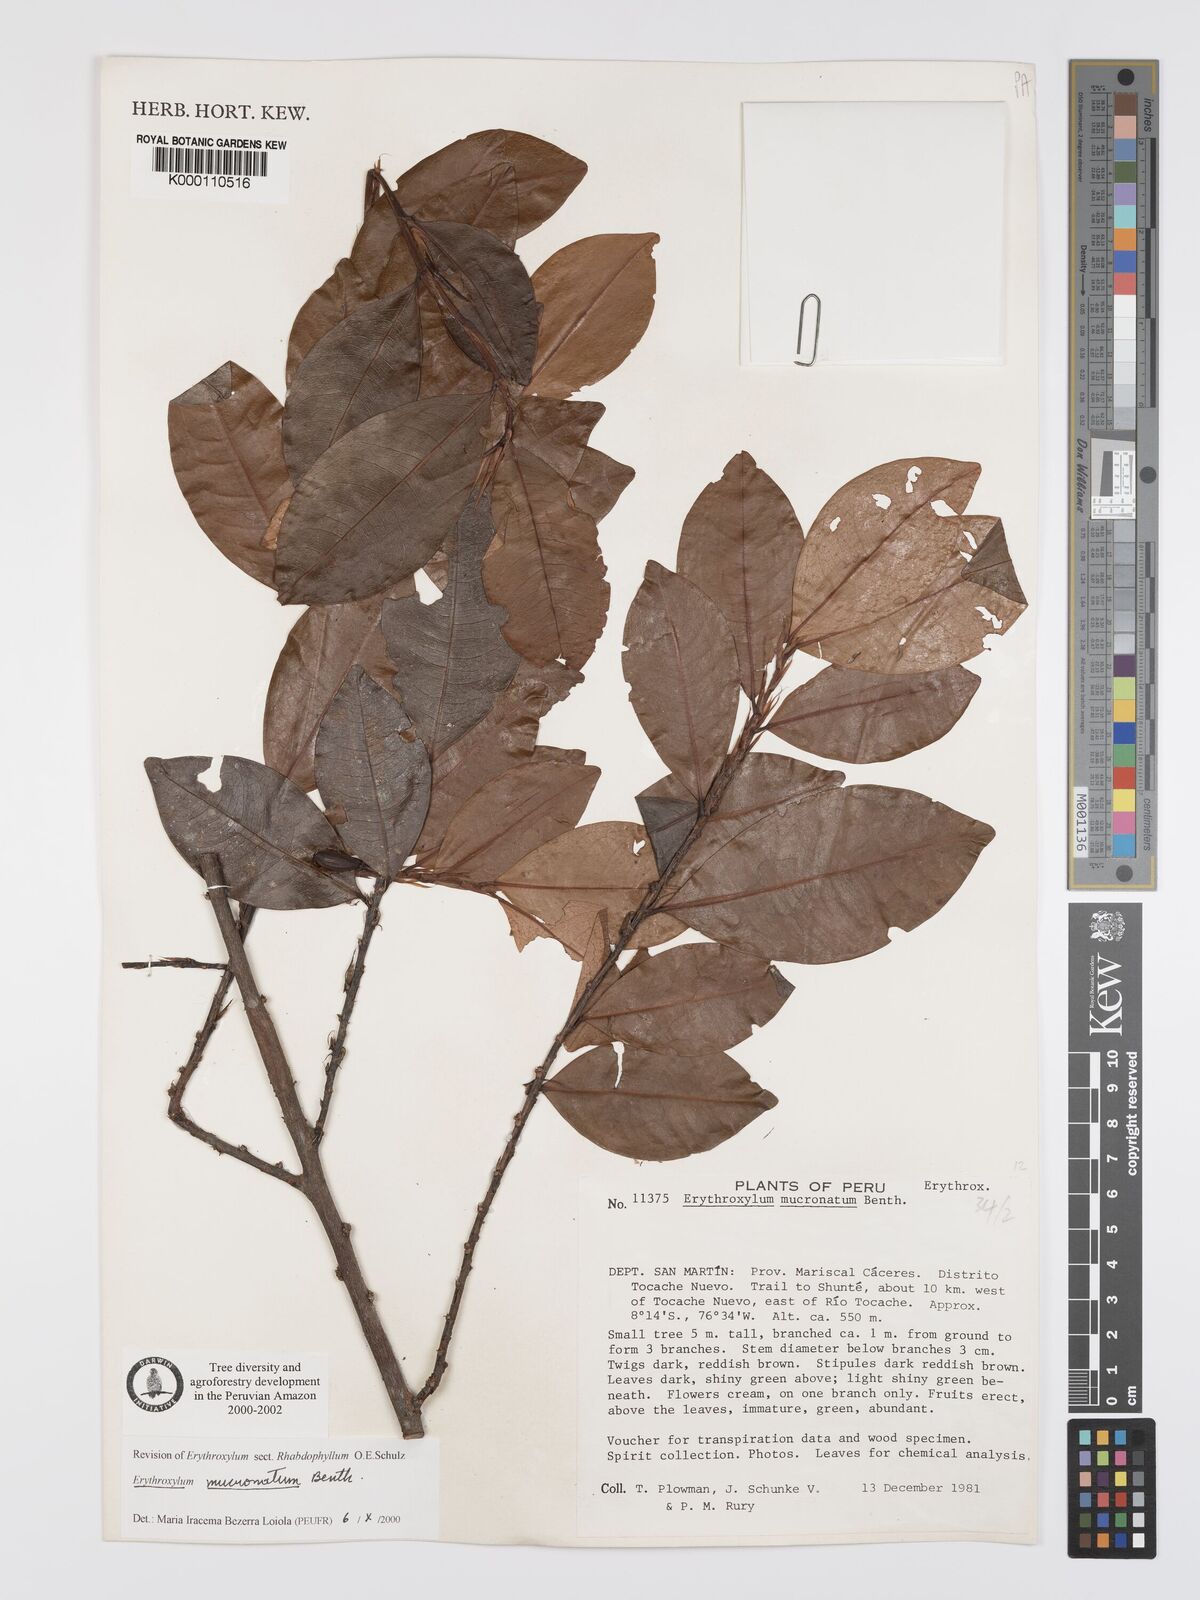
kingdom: Plantae
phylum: Tracheophyta
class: Magnoliopsida
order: Malpighiales
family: Erythroxylaceae
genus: Erythroxylum
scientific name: Erythroxylum mucronatum
